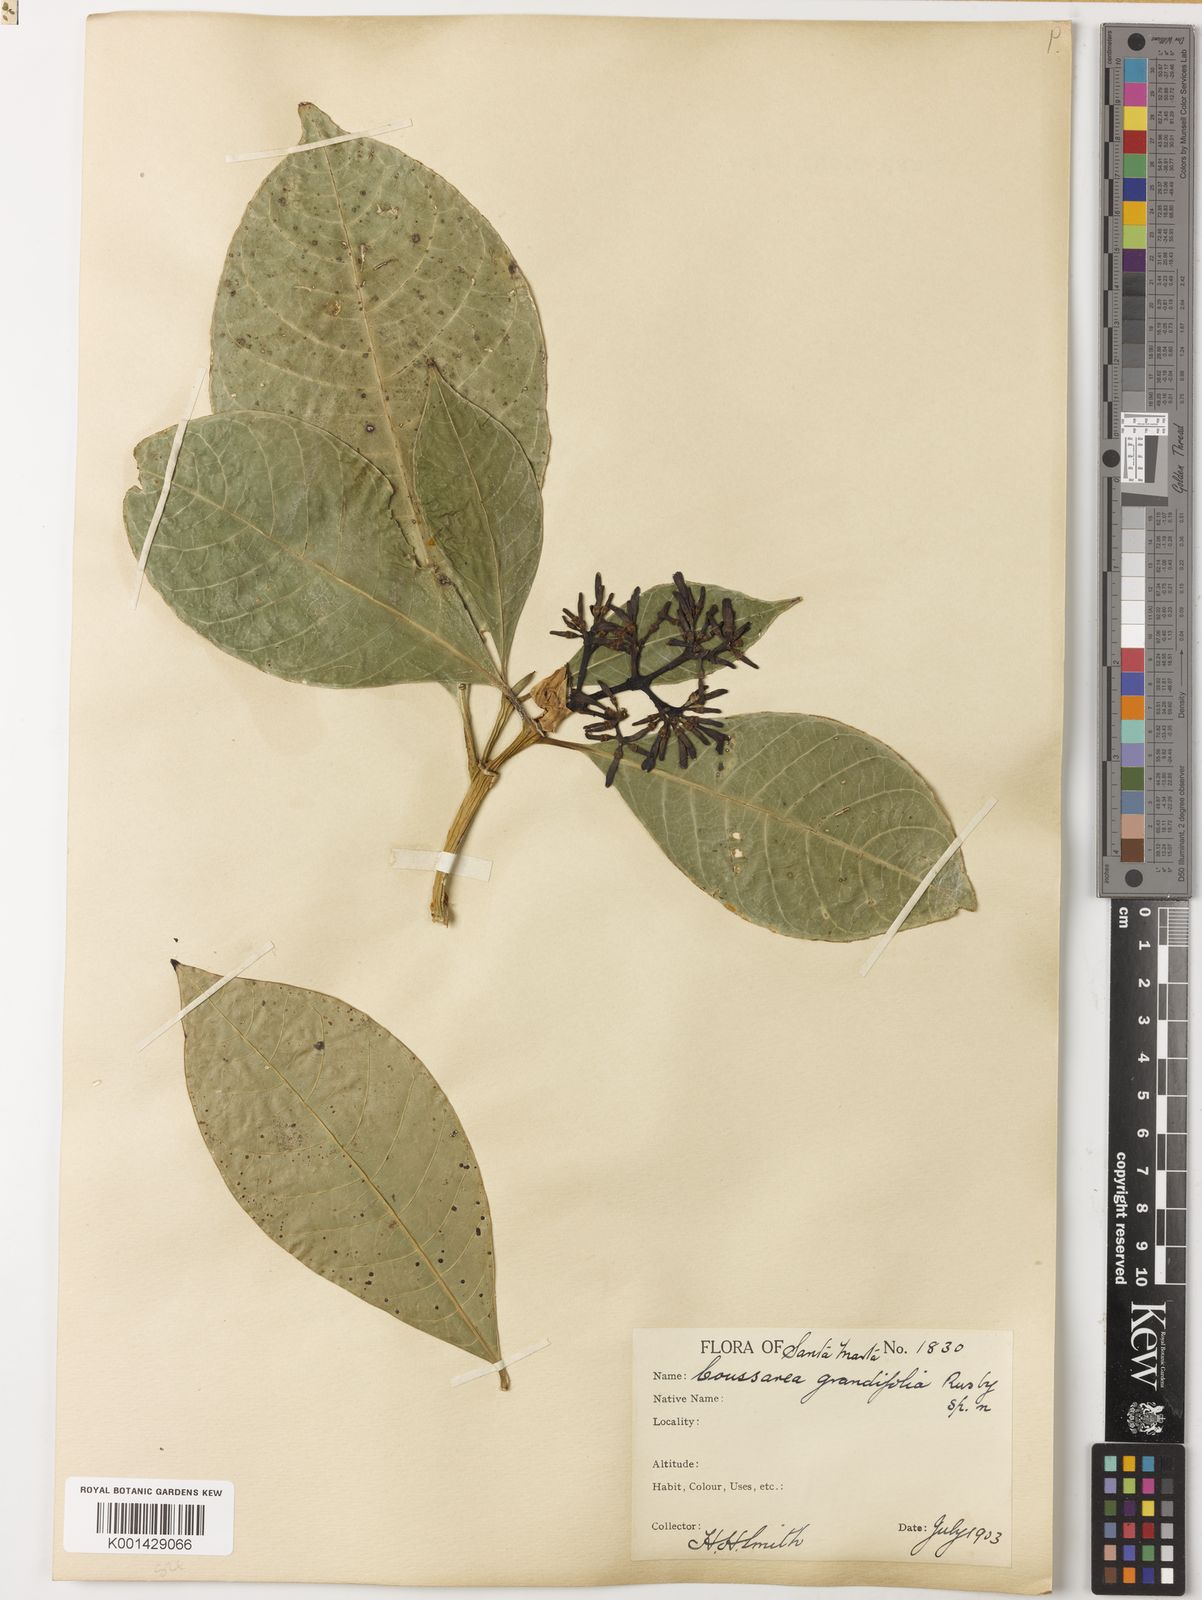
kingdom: Plantae
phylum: Tracheophyta
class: Magnoliopsida
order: Gentianales
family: Rubiaceae
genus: Coussarea
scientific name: Coussarea grandifolia
